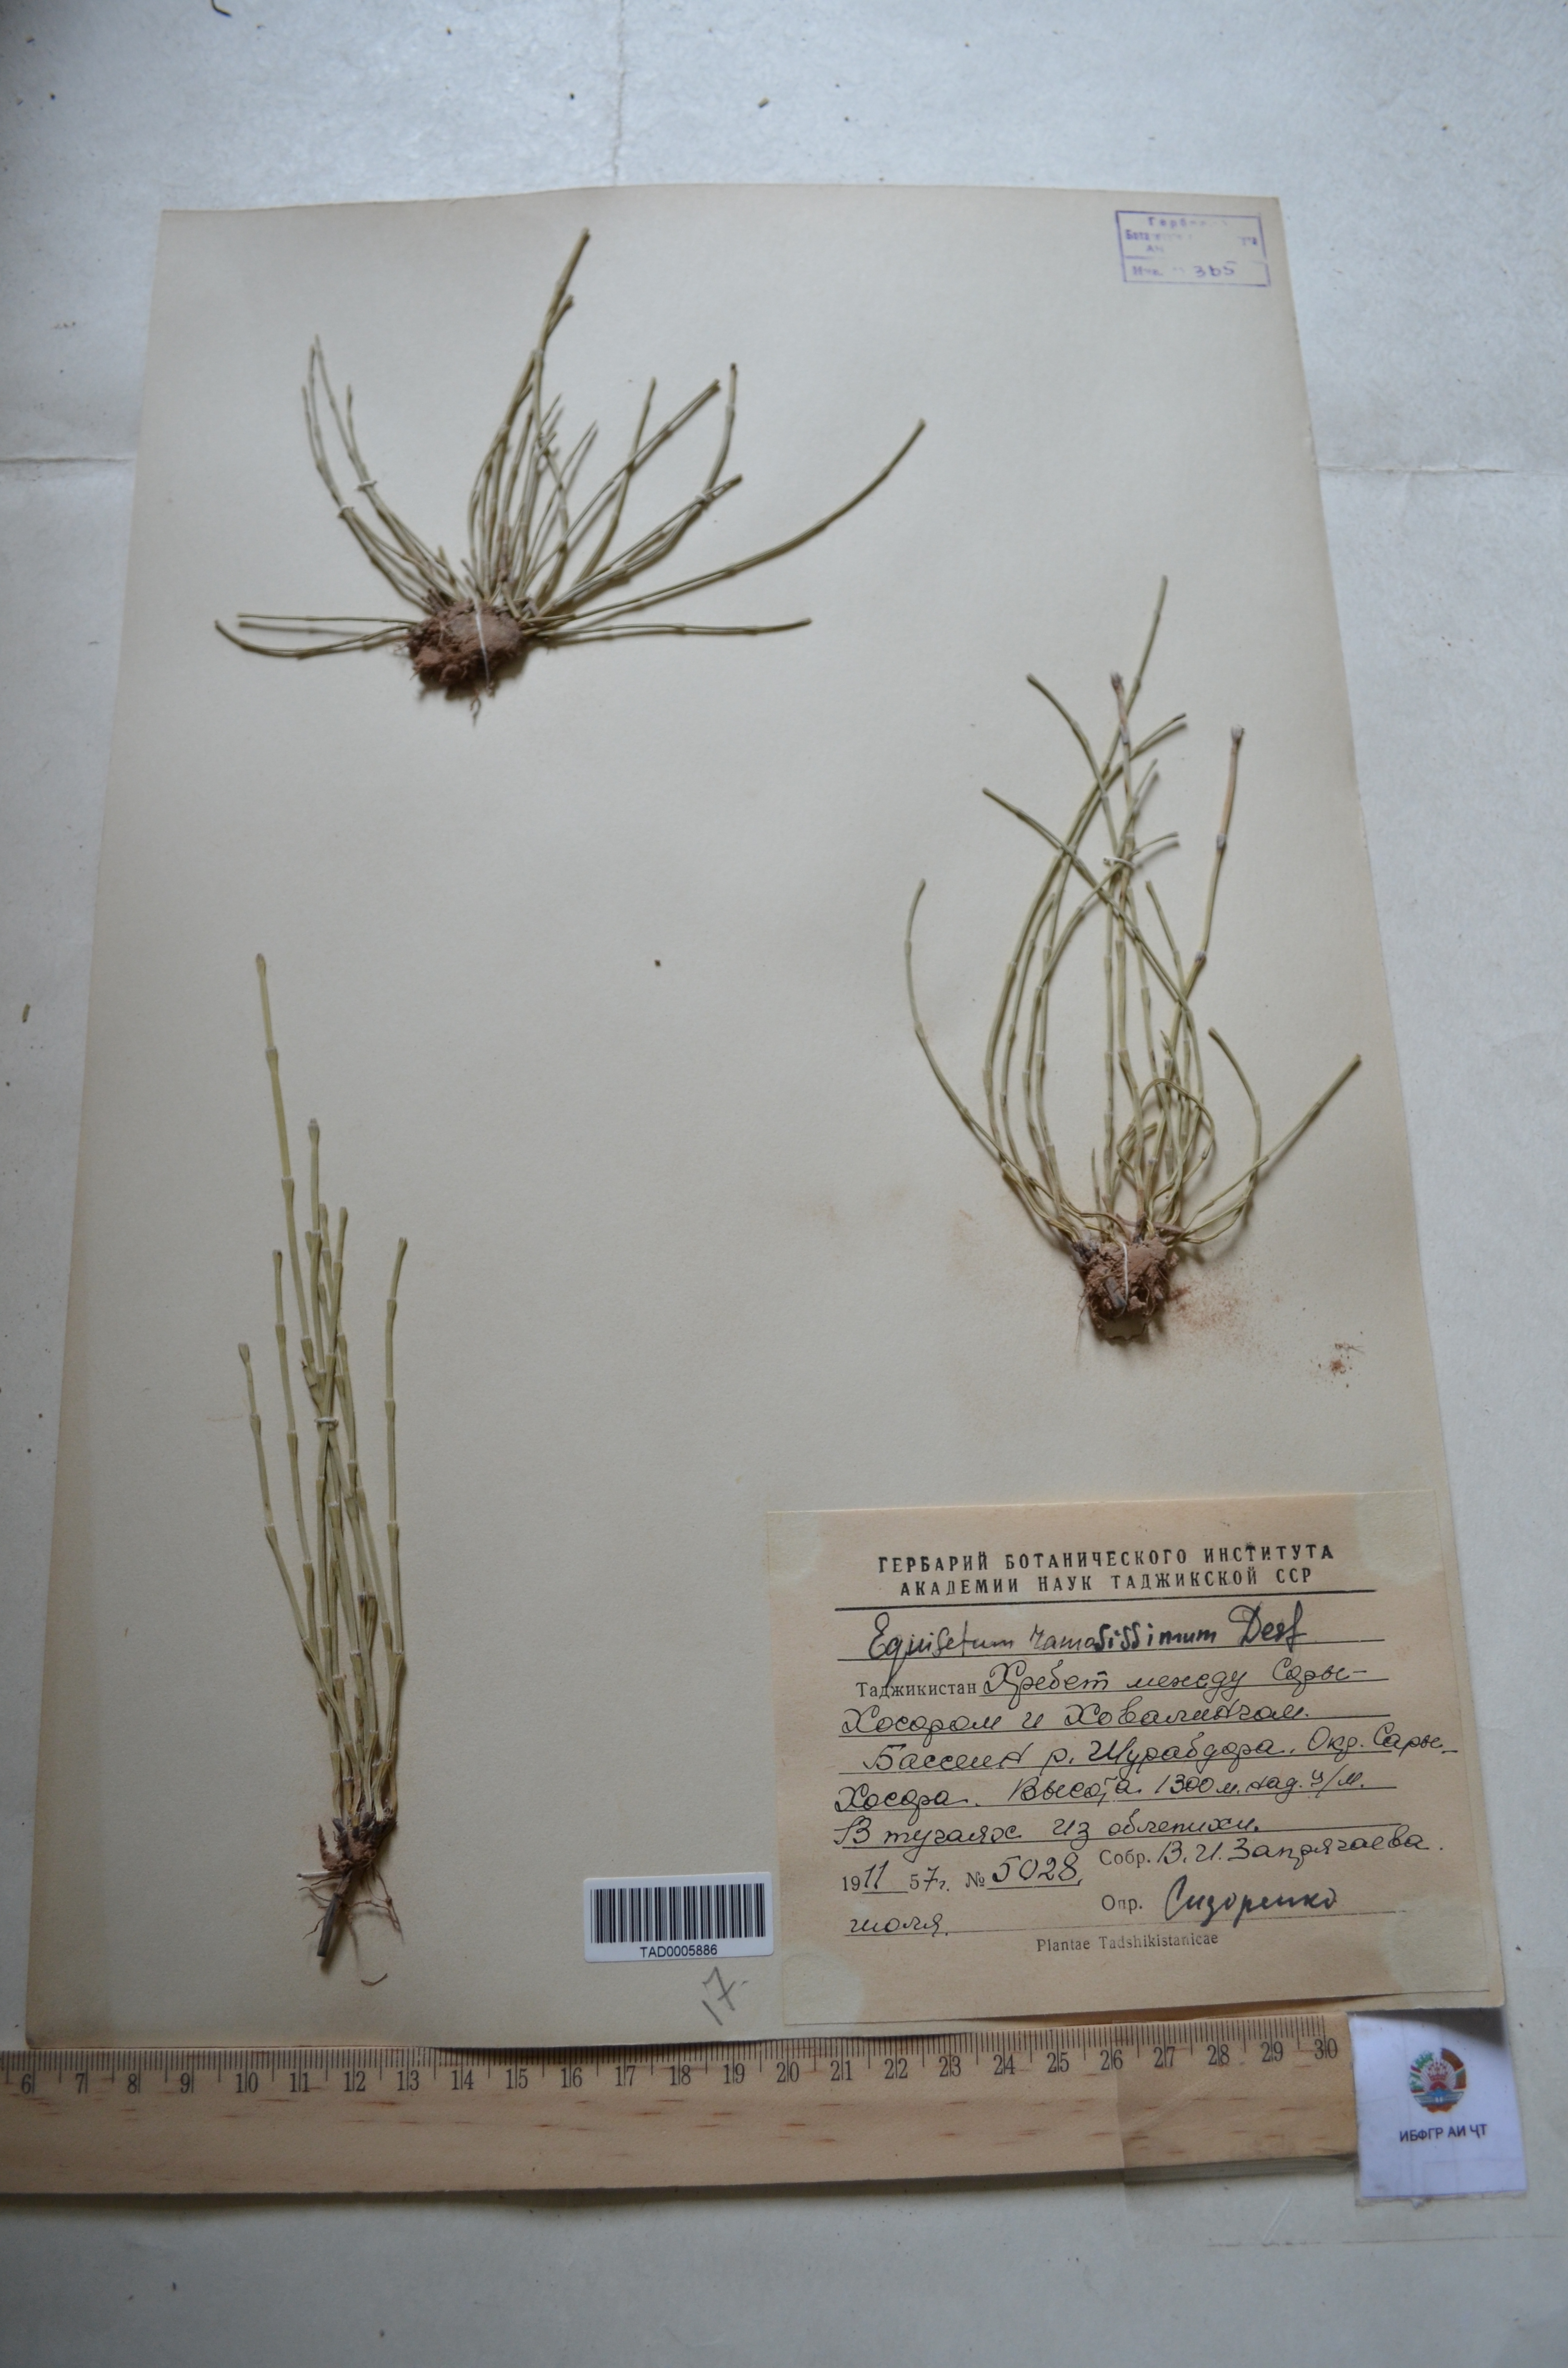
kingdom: Plantae
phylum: Tracheophyta
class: Polypodiopsida
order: Equisetales
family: Equisetaceae
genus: Equisetum
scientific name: Equisetum ramosissimum
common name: Branched horsetail
